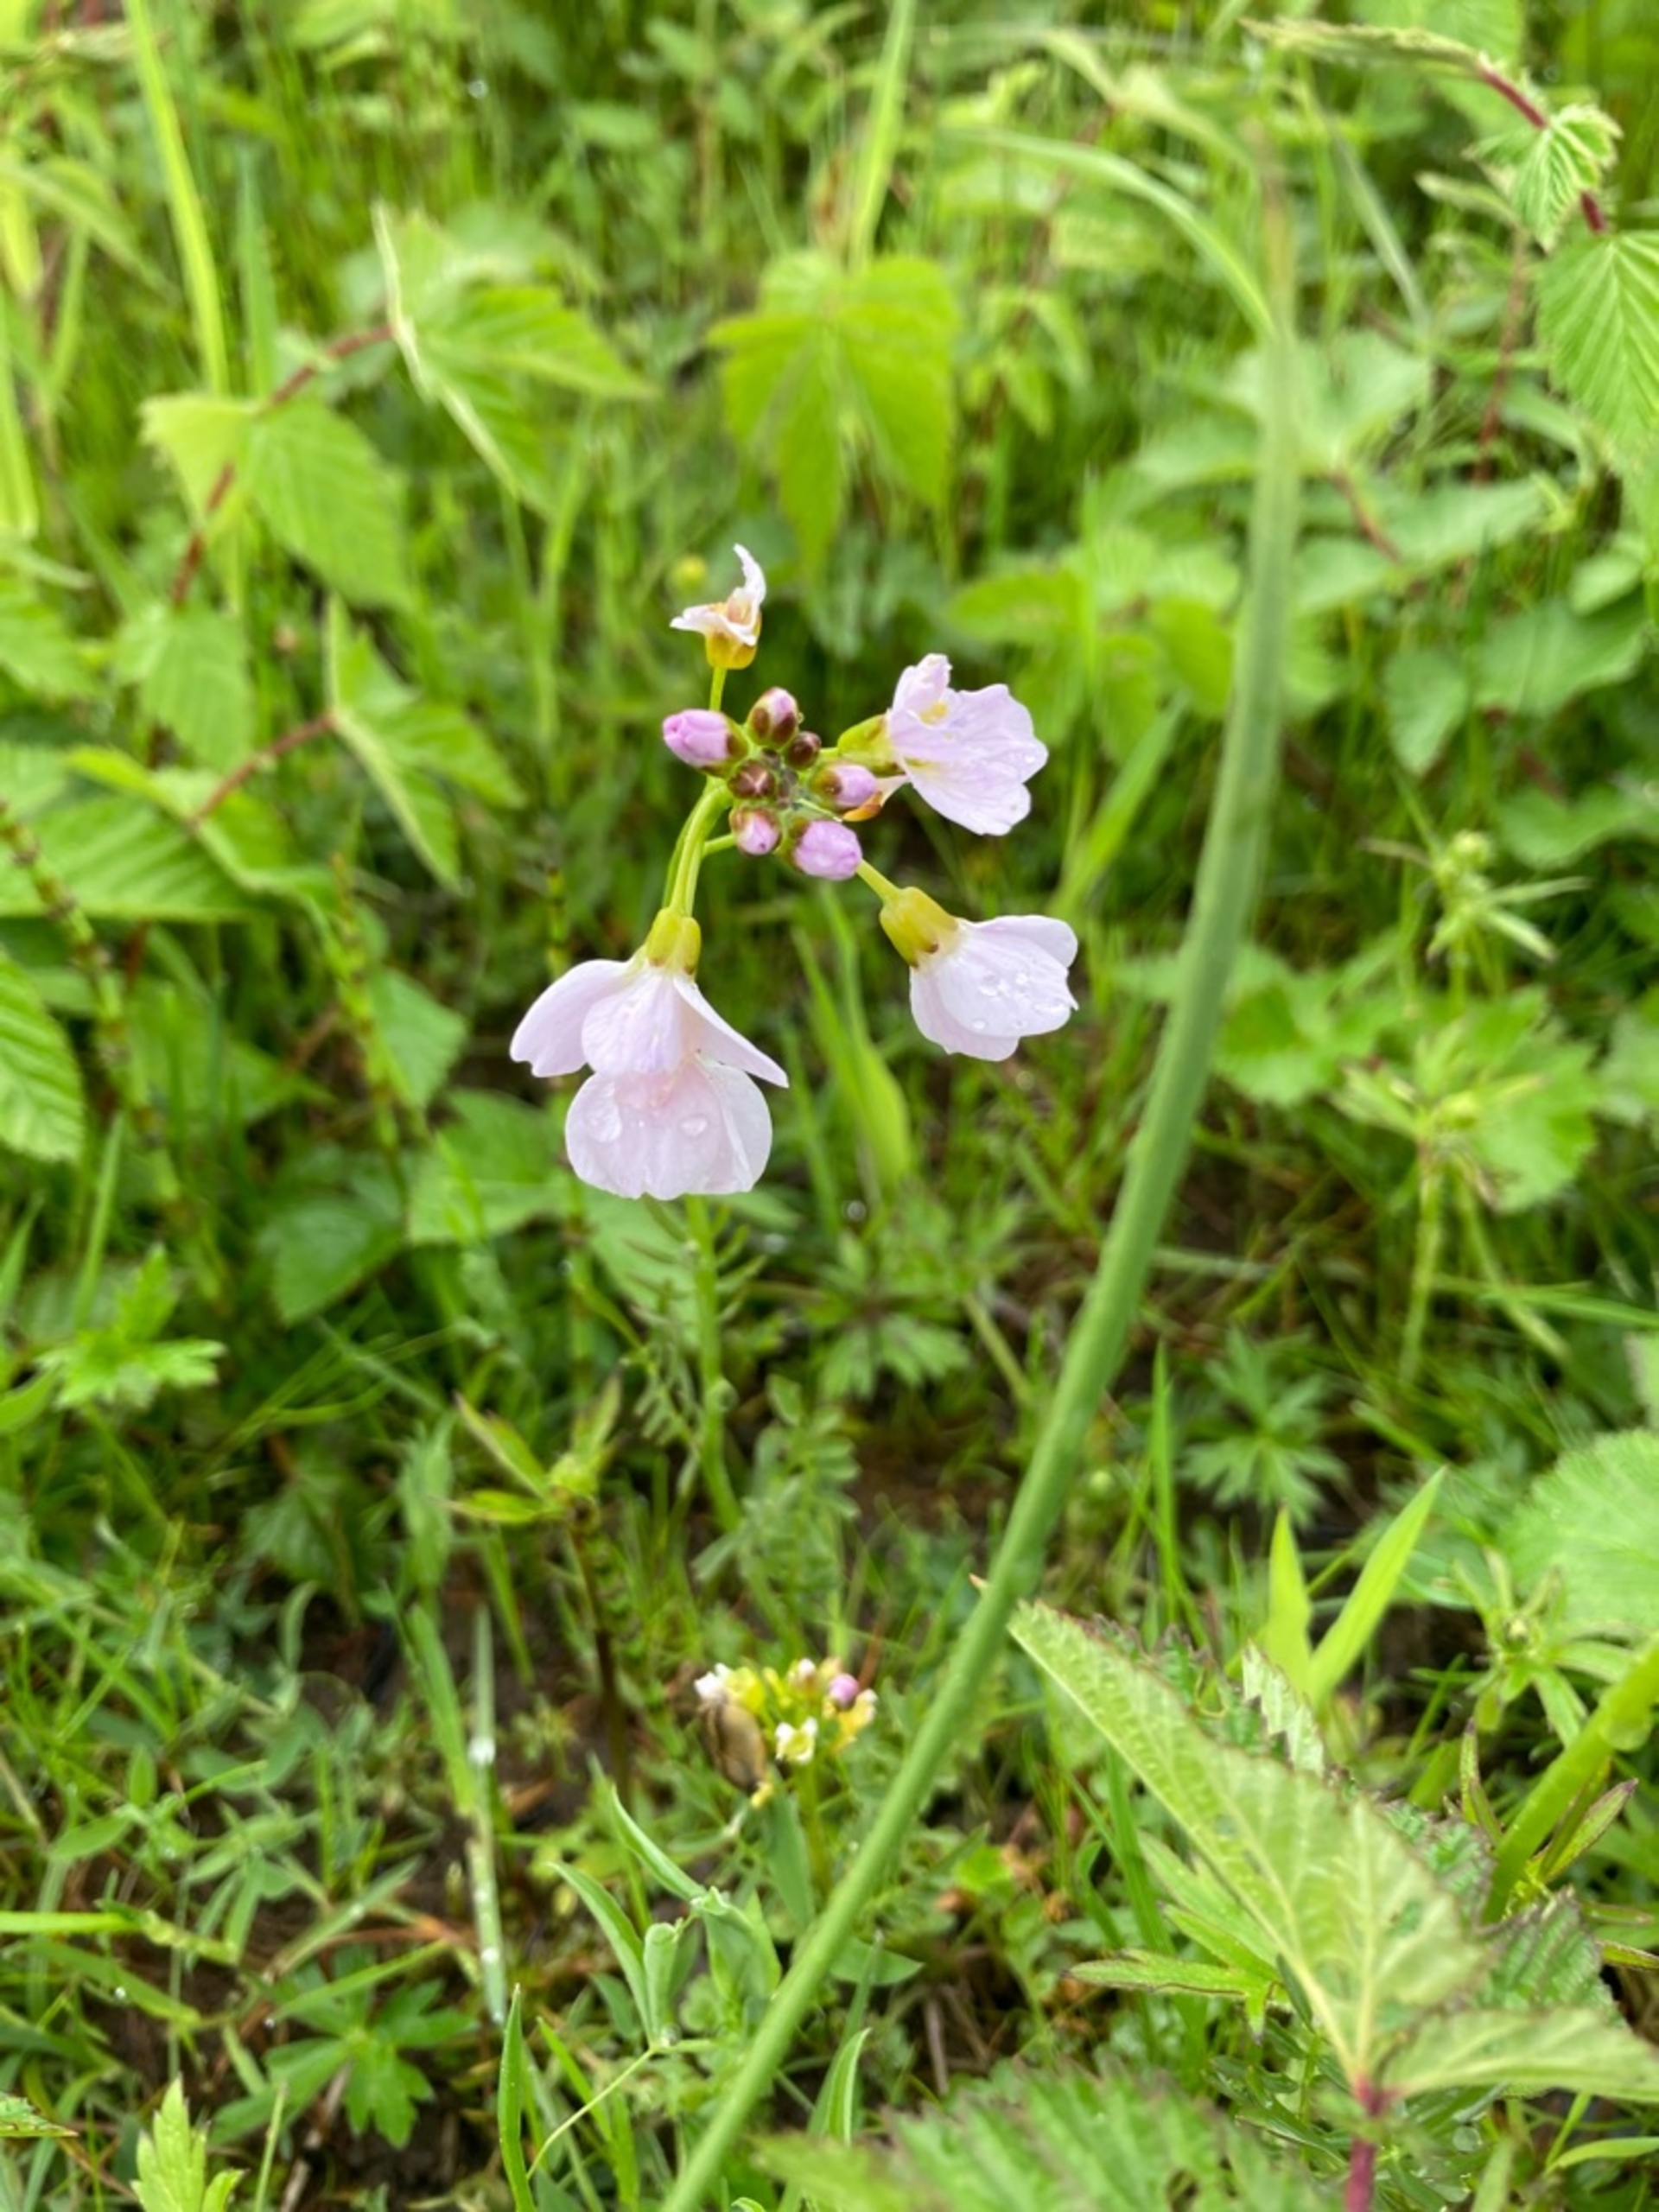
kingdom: Plantae
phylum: Tracheophyta
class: Magnoliopsida
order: Brassicales
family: Brassicaceae
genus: Cardamine
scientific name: Cardamine pratensis
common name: Engkarse
